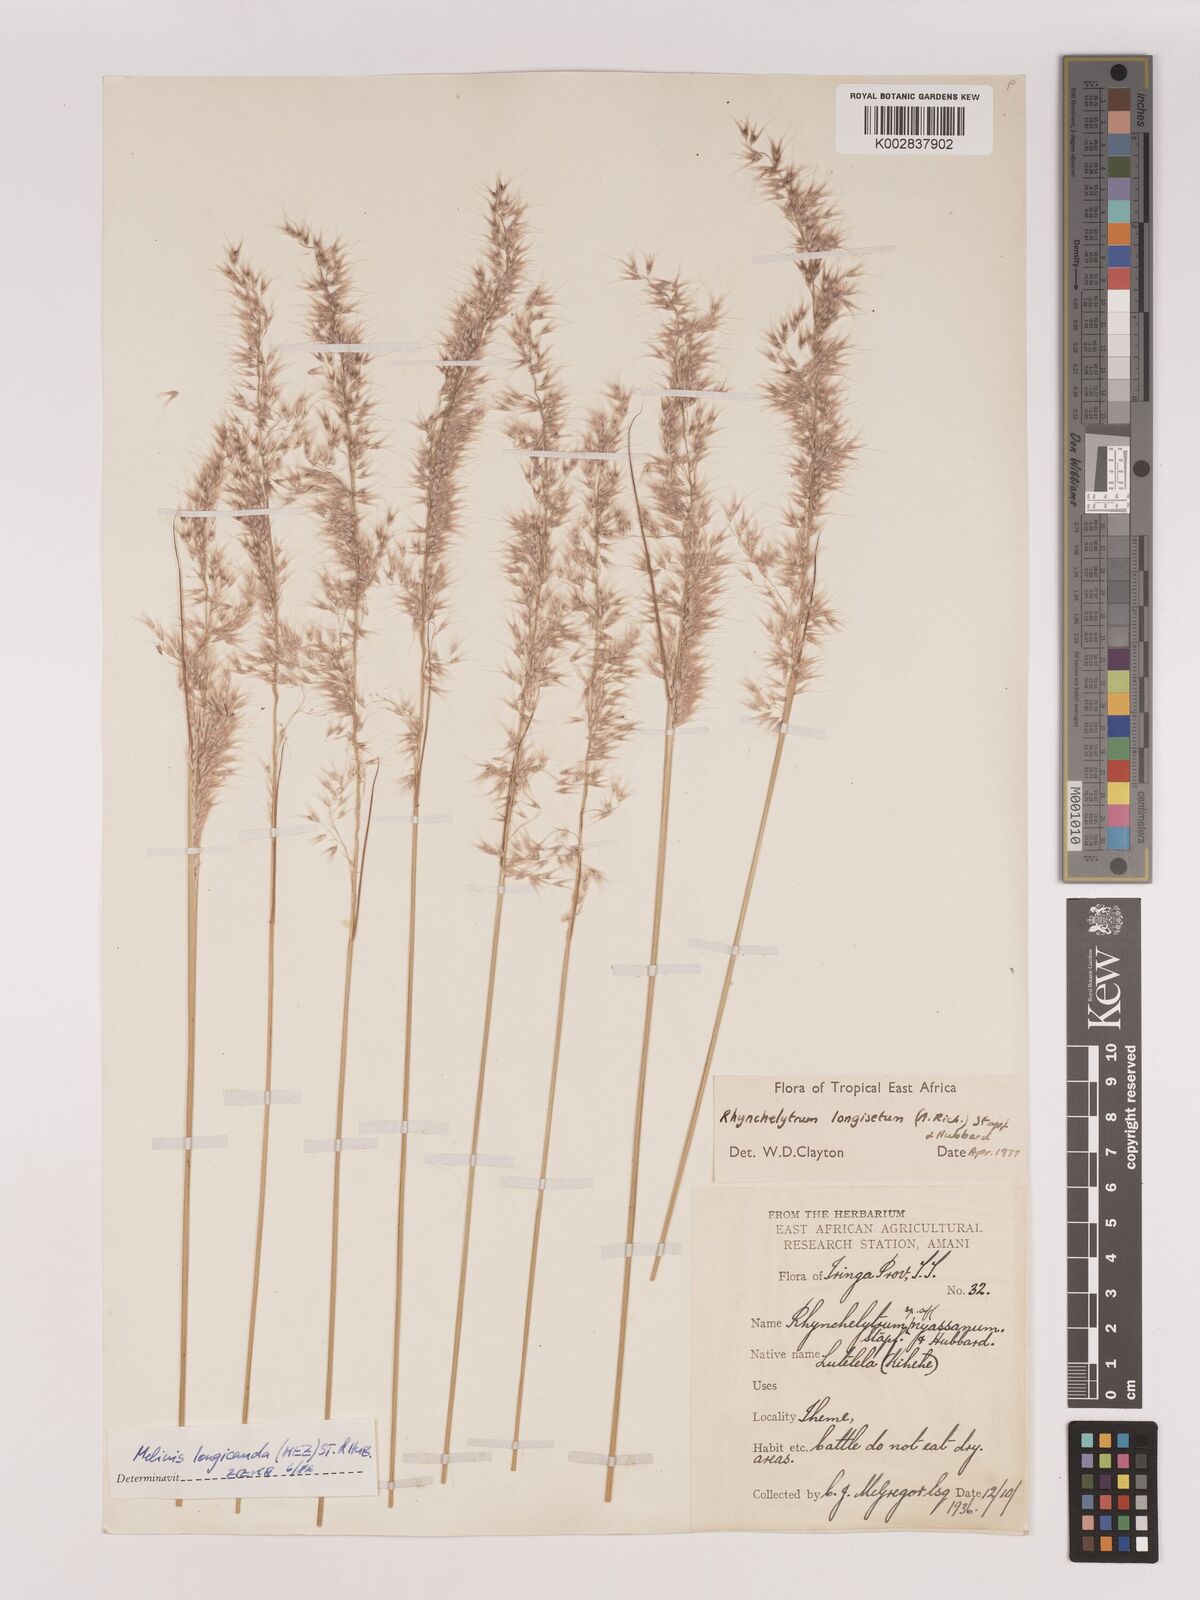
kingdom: Plantae
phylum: Tracheophyta
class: Liliopsida
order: Poales
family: Poaceae
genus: Melinis
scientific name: Melinis longiseta
